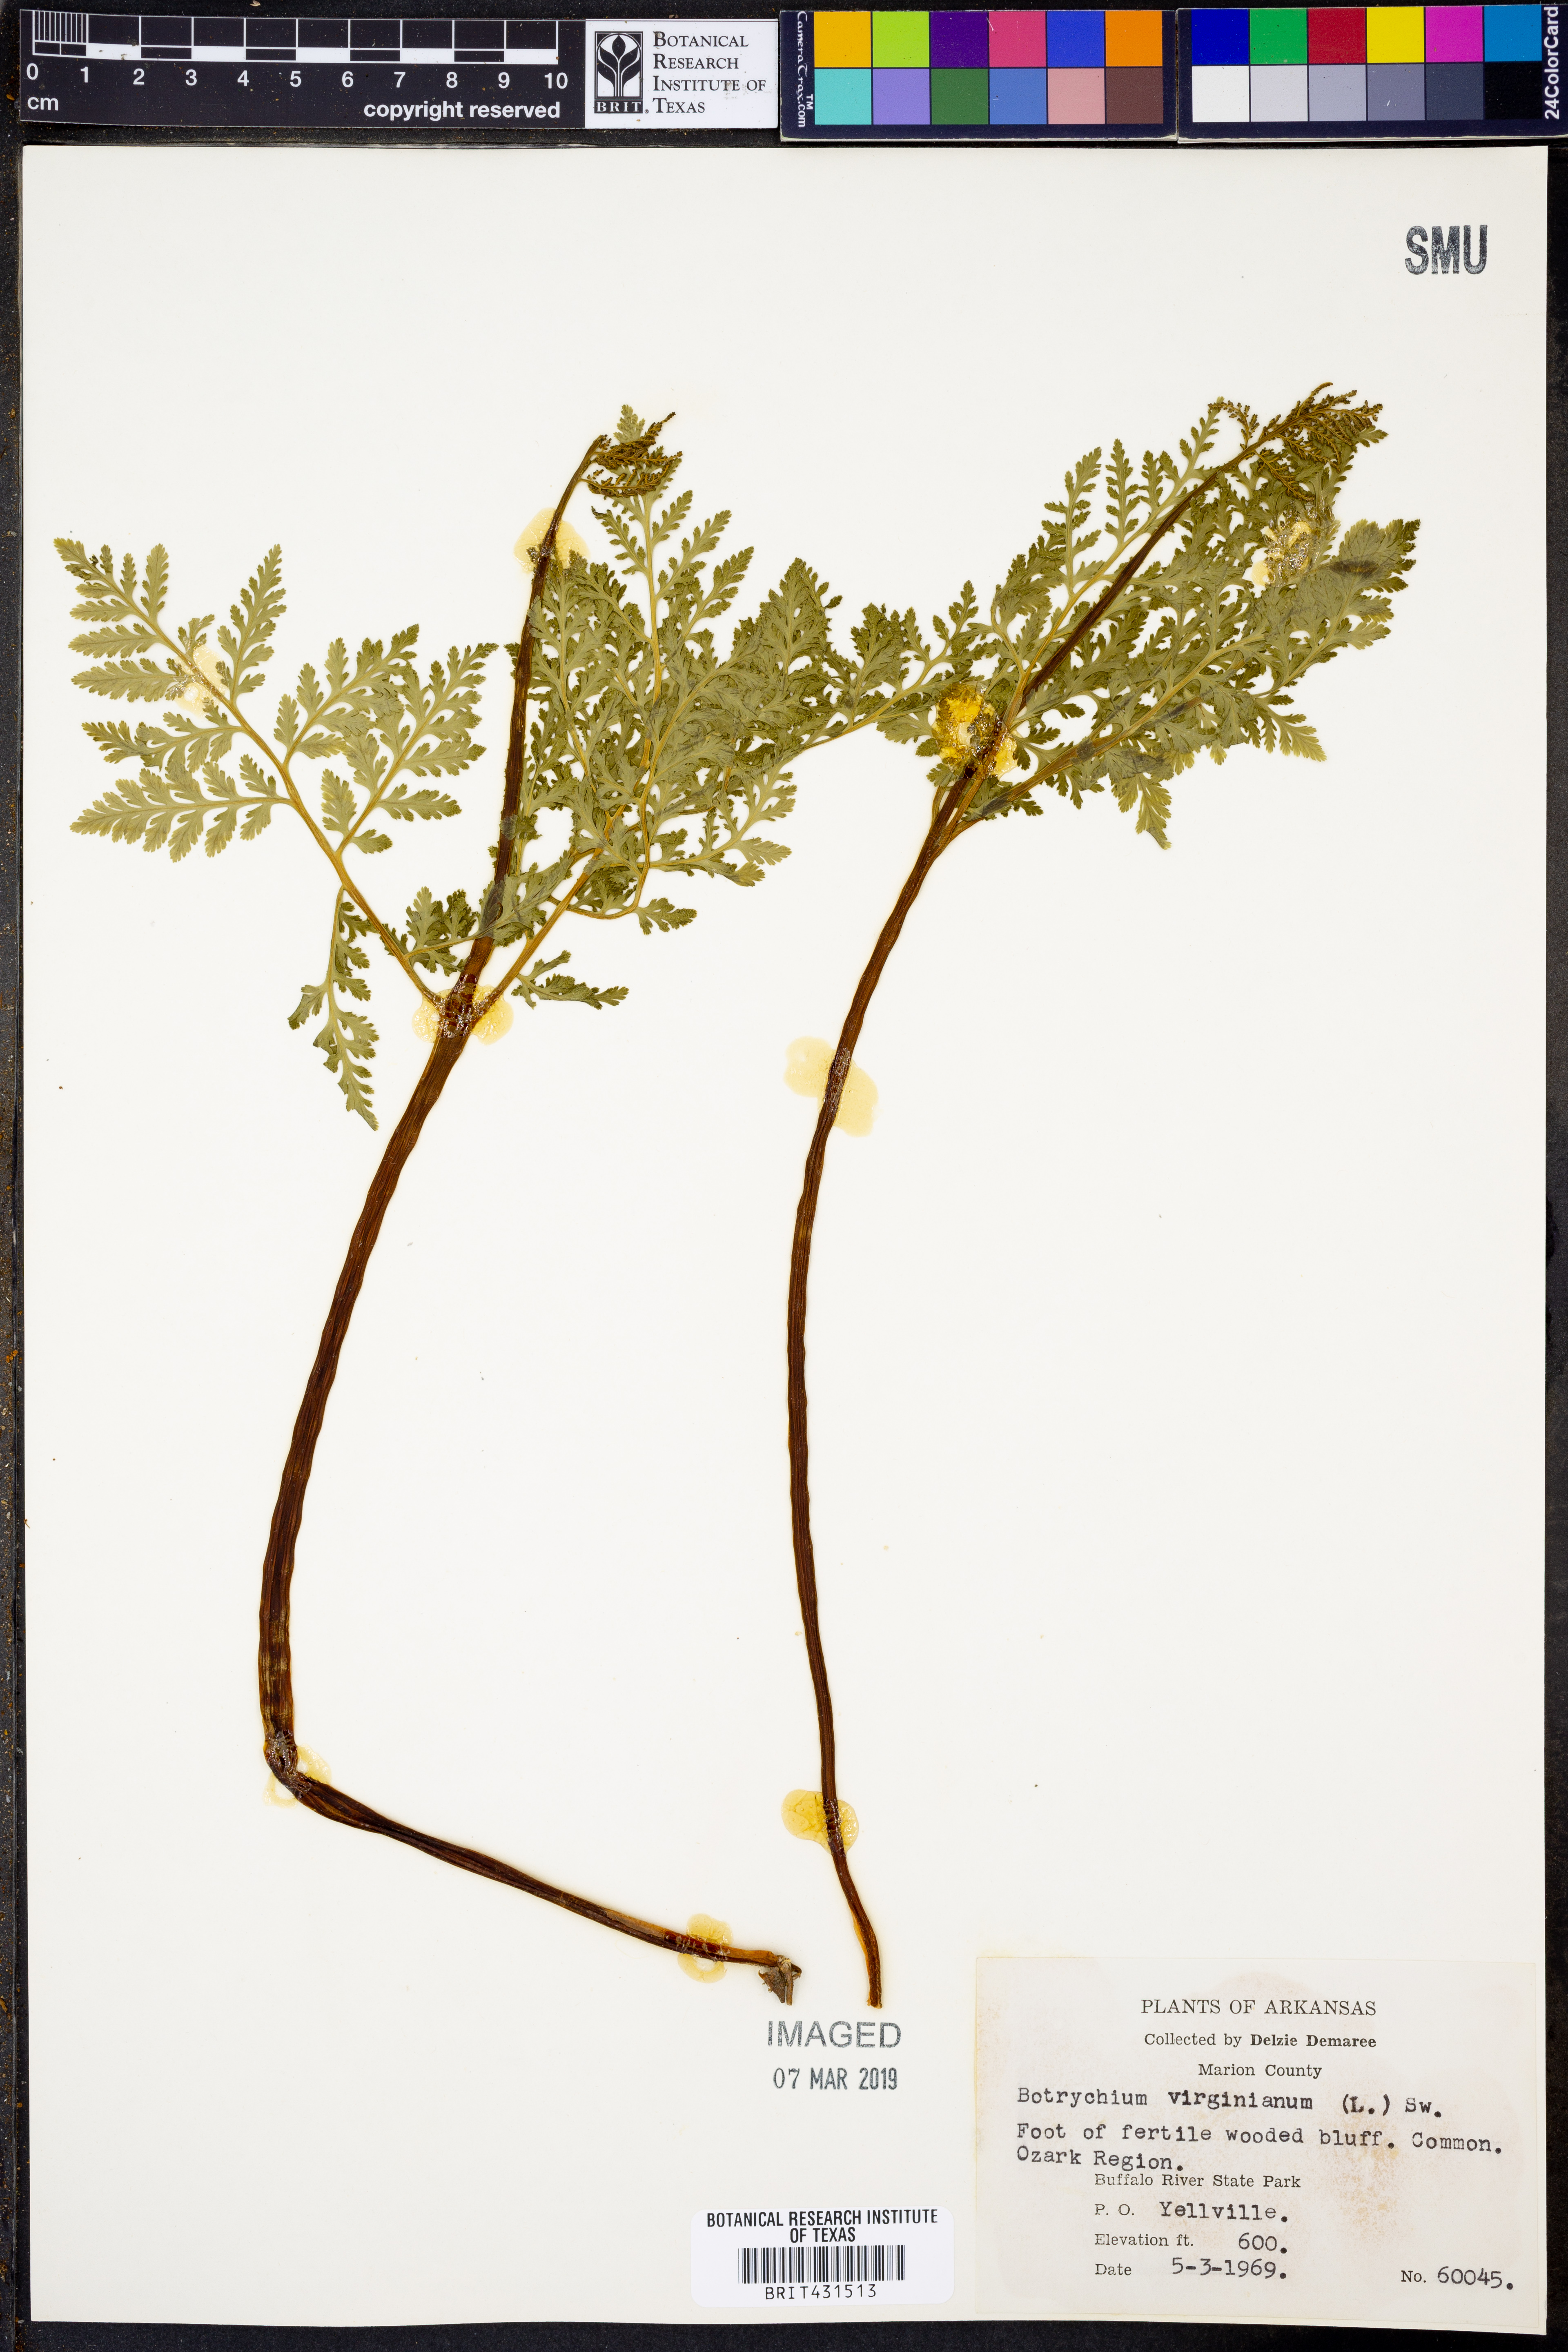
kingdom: Plantae
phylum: Tracheophyta
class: Polypodiopsida
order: Ophioglossales
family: Ophioglossaceae
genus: Botrypus
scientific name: Botrypus virginianus
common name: Common grapefern
